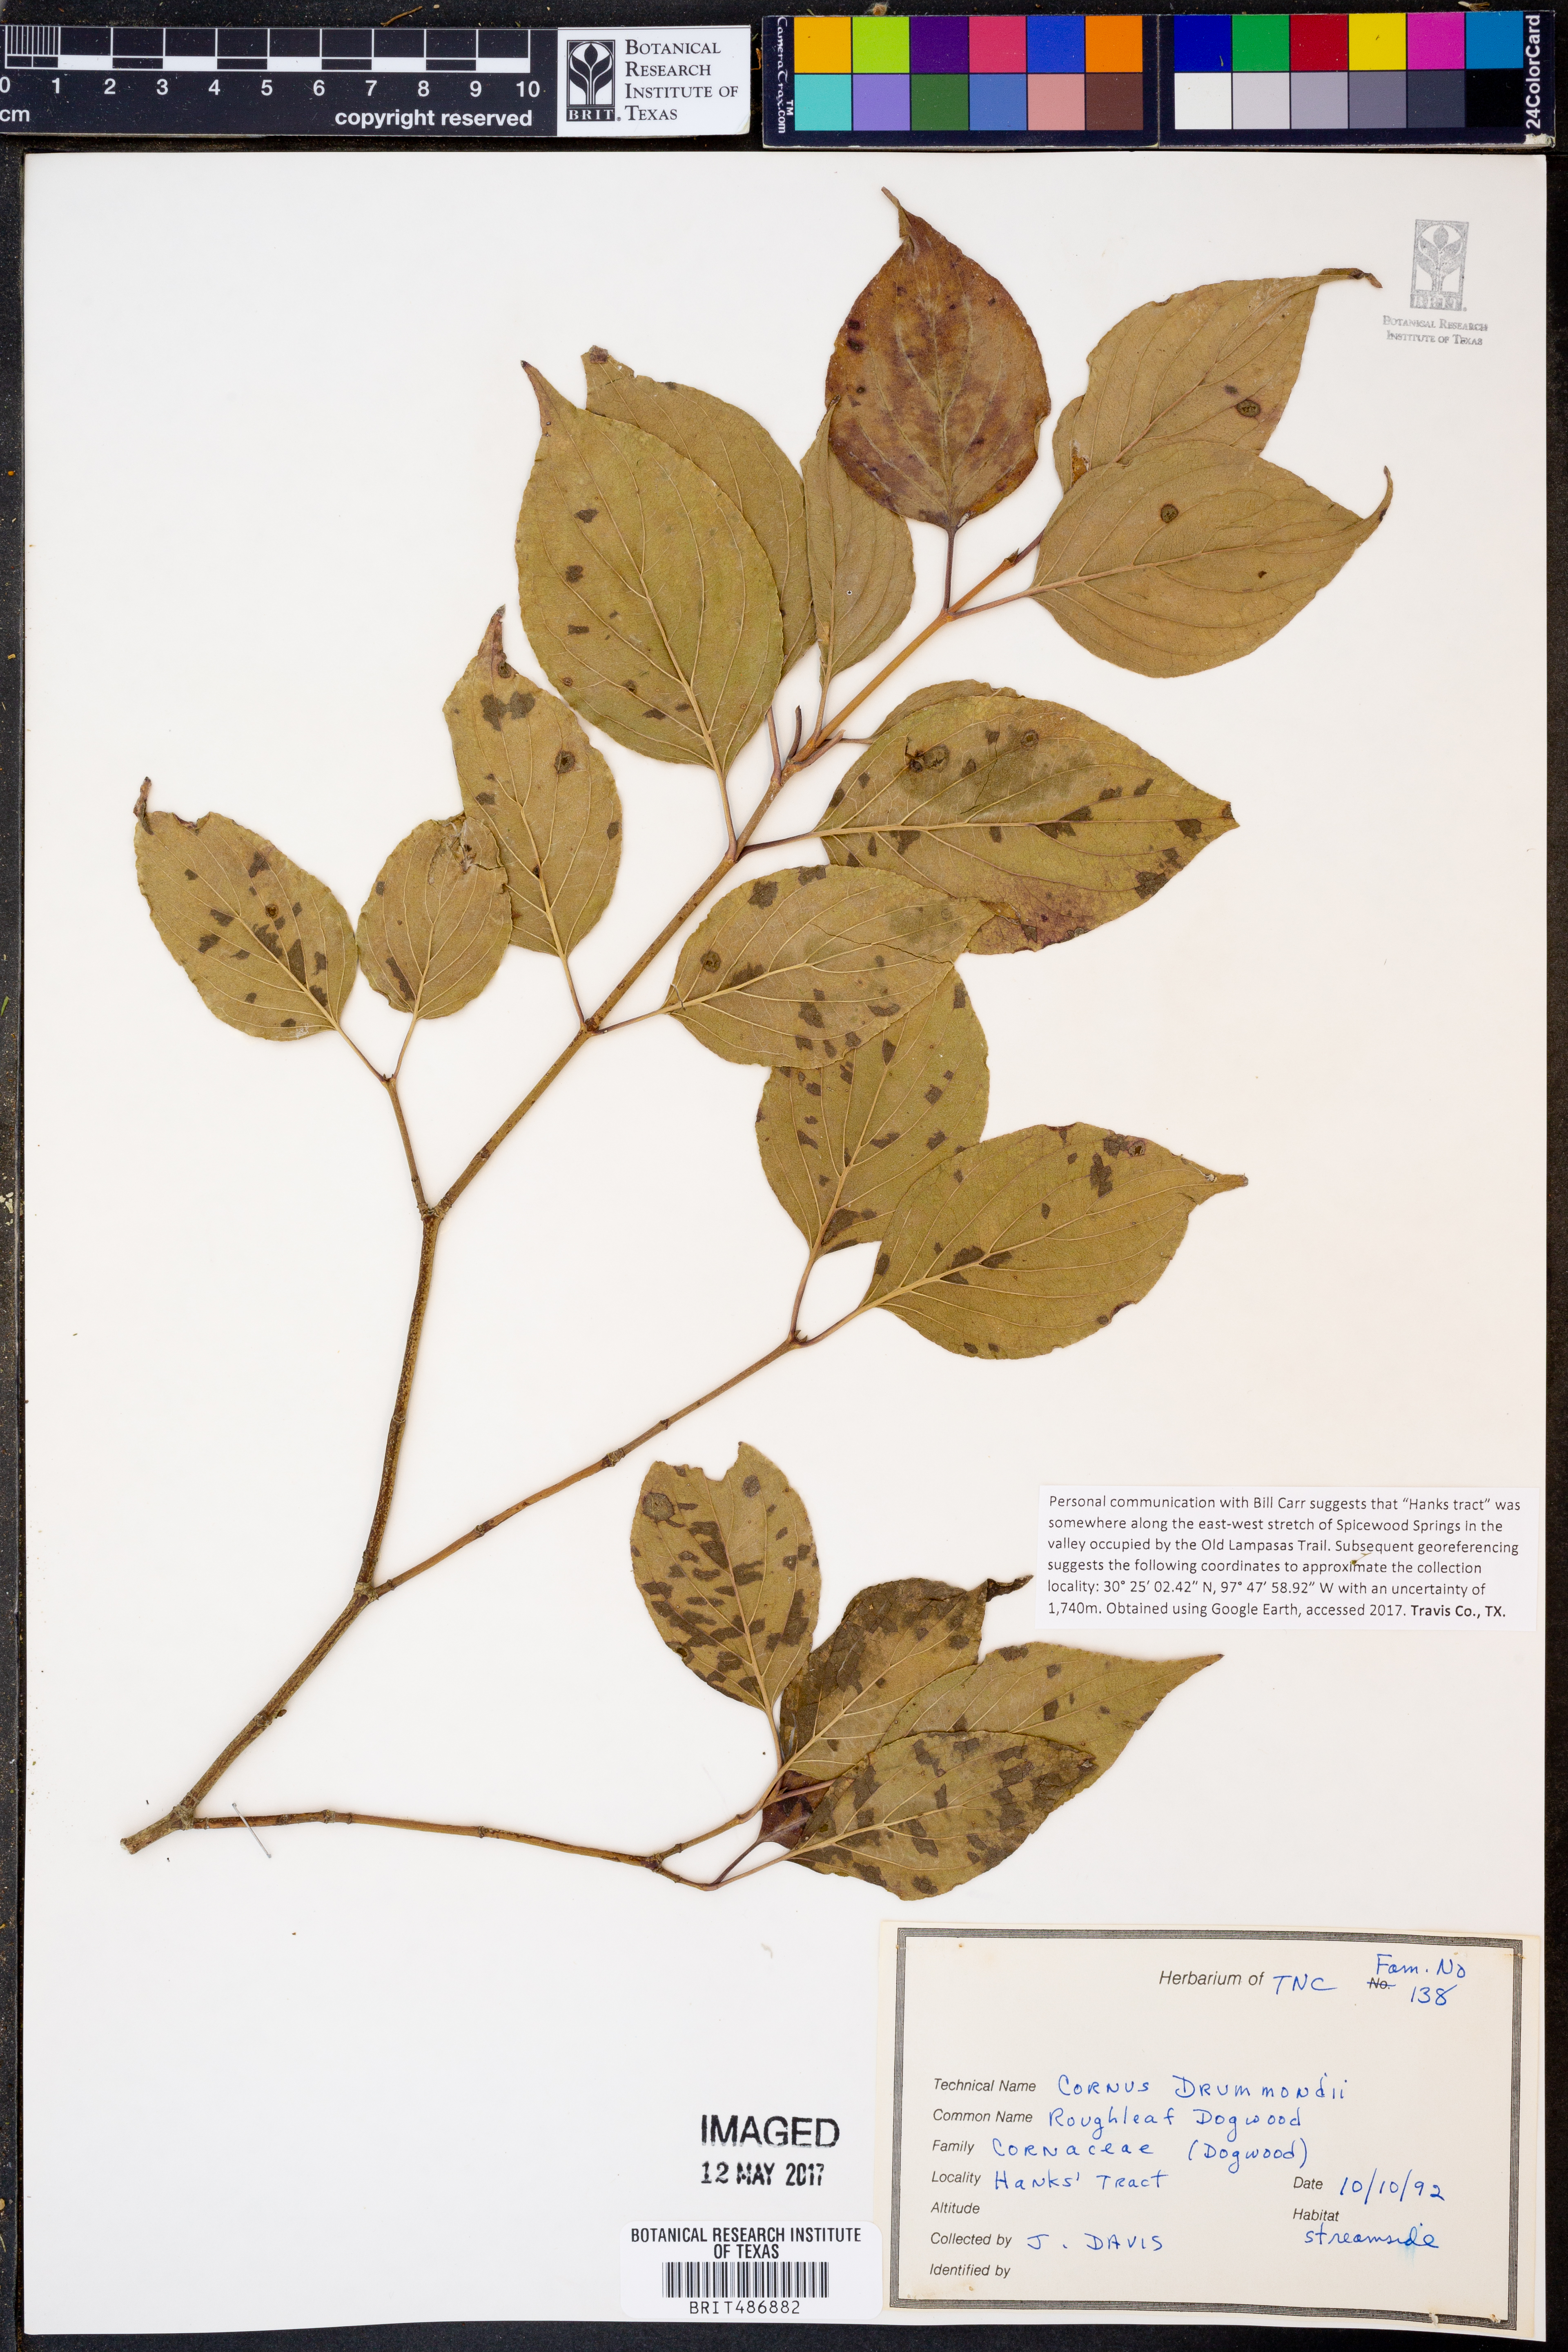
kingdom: Plantae
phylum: Tracheophyta
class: Magnoliopsida
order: Cornales
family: Cornaceae
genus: Cornus
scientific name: Cornus drummondii
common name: Rough-leaf dogwood
